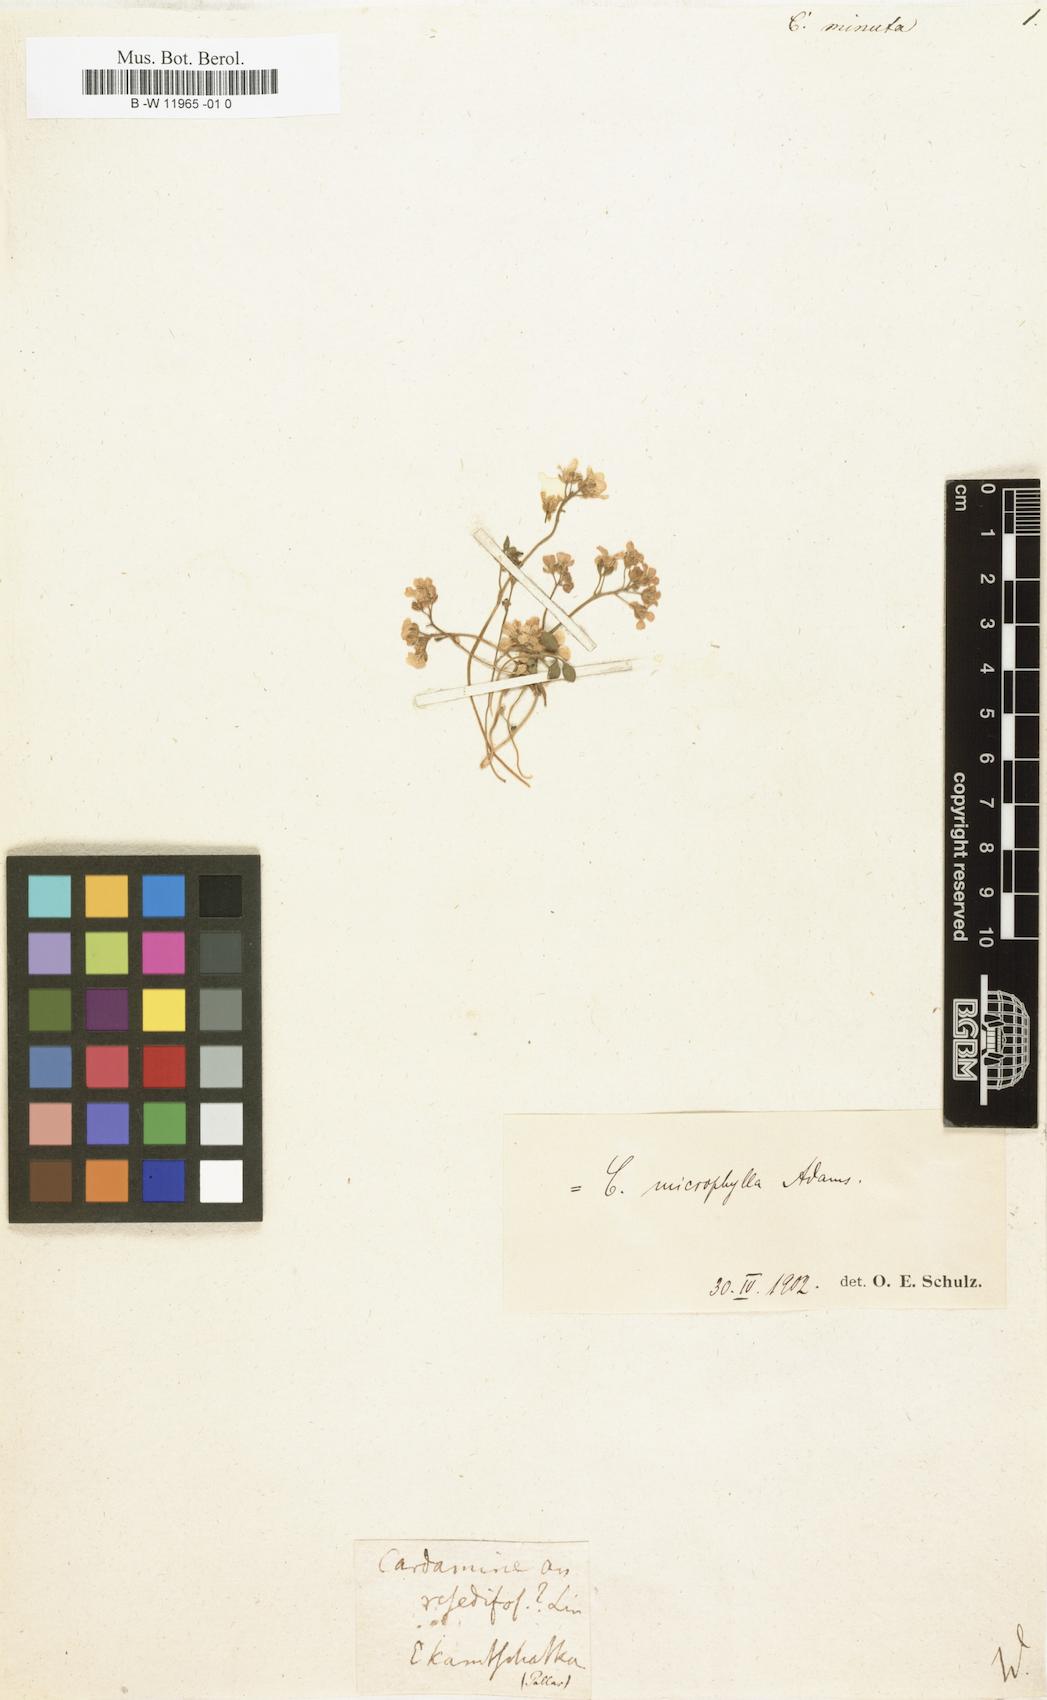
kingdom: Plantae
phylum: Tracheophyta
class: Magnoliopsida
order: Brassicales
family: Brassicaceae
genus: Cardamine
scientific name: Cardamine microphylla
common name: Little-leaved bittercress
